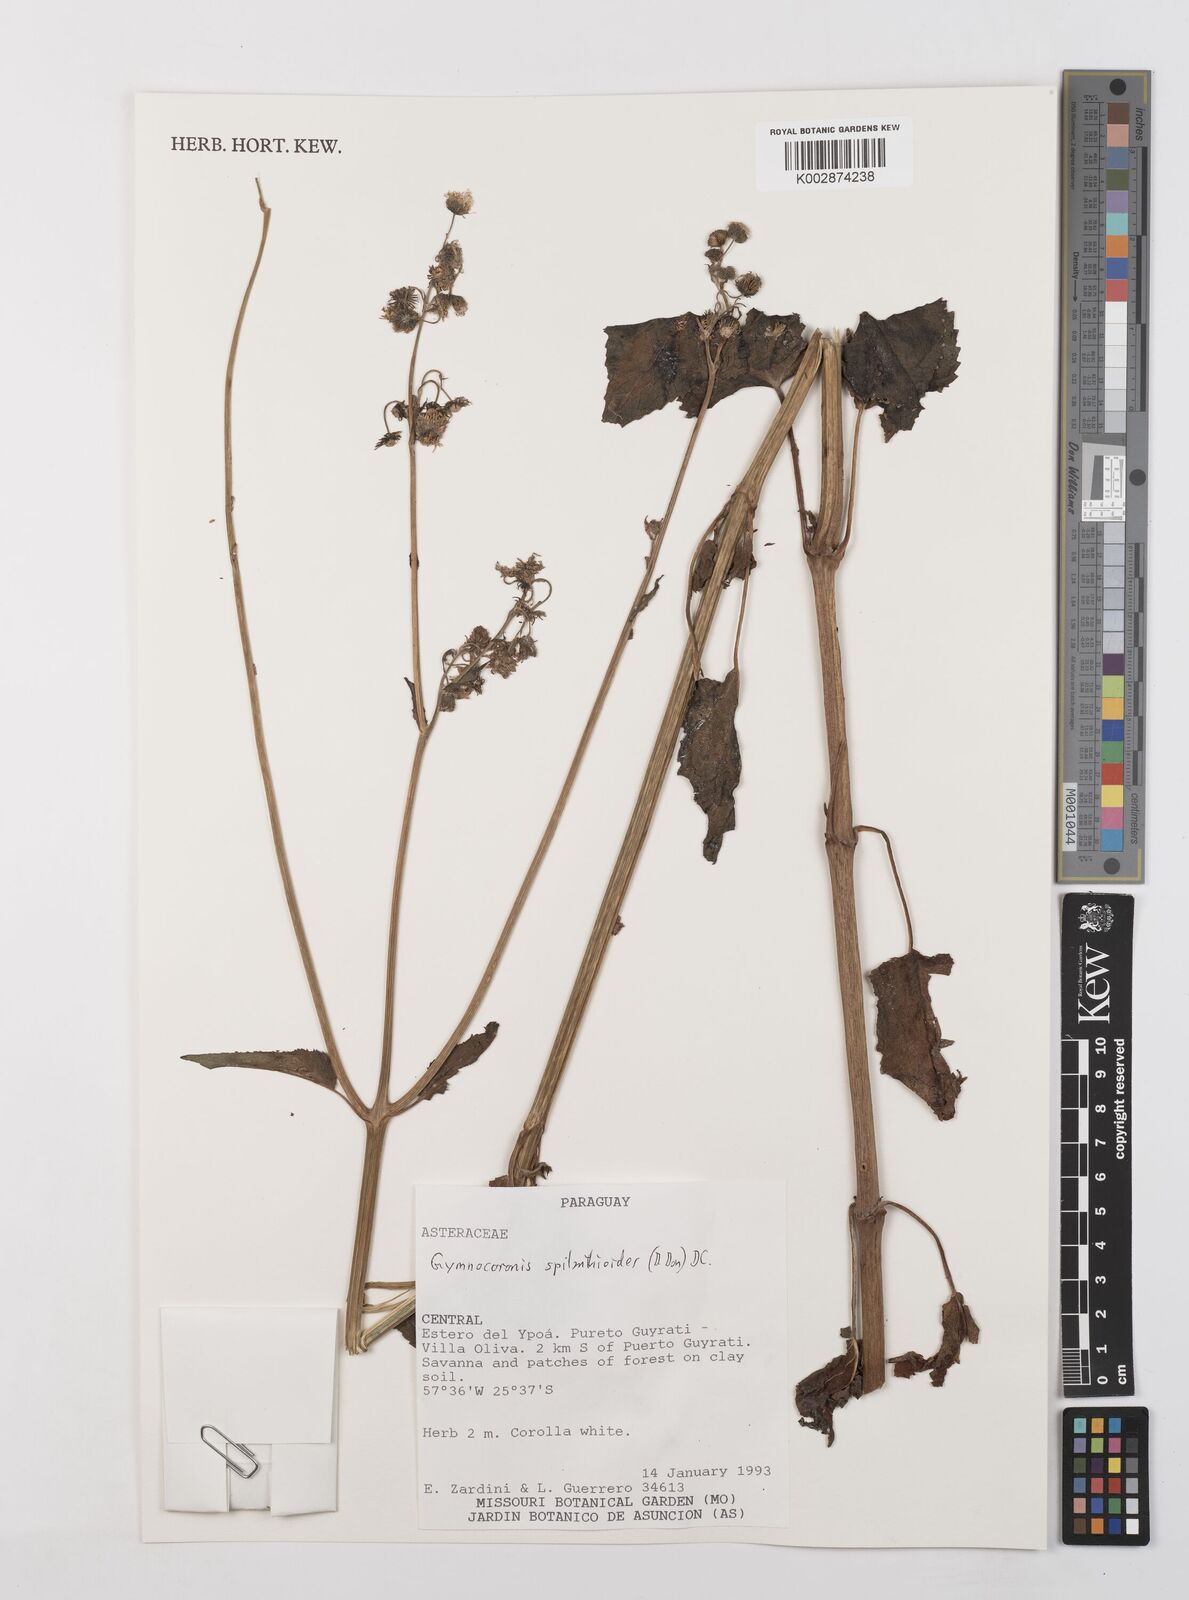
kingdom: Plantae
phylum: Tracheophyta
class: Magnoliopsida
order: Asterales
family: Asteraceae
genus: Gymnocoronis
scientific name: Gymnocoronis spilanthoides
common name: Senegal teaplant
